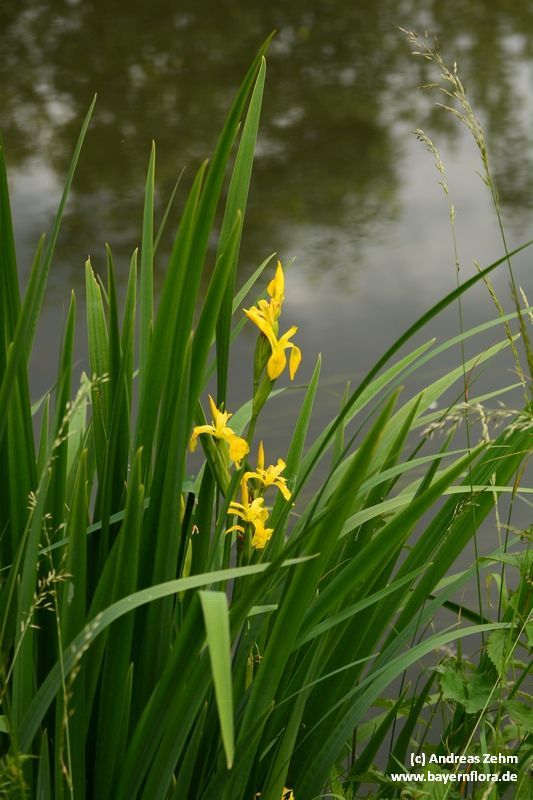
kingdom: Plantae
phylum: Tracheophyta
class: Liliopsida
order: Asparagales
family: Iridaceae
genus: Iris
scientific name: Iris pseudacorus
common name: Yellow flag
